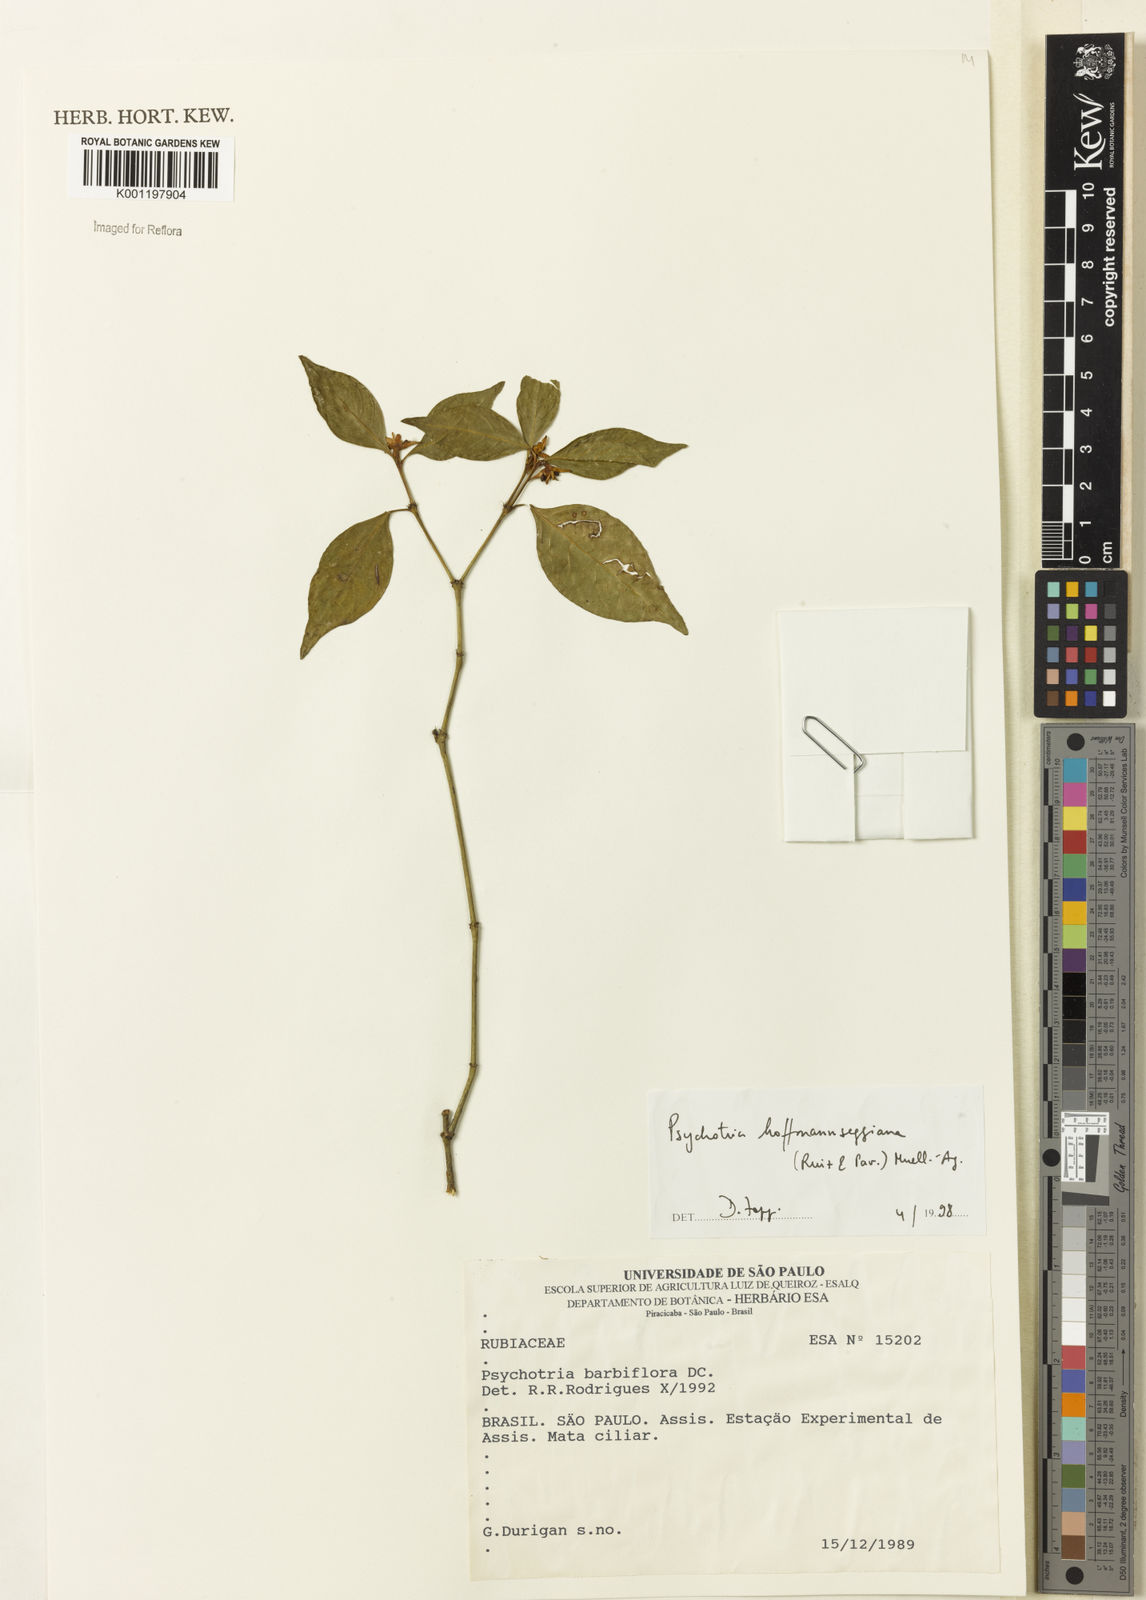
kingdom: Plantae
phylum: Tracheophyta
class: Magnoliopsida
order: Gentianales
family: Rubiaceae
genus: Psychotria
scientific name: Psychotria
